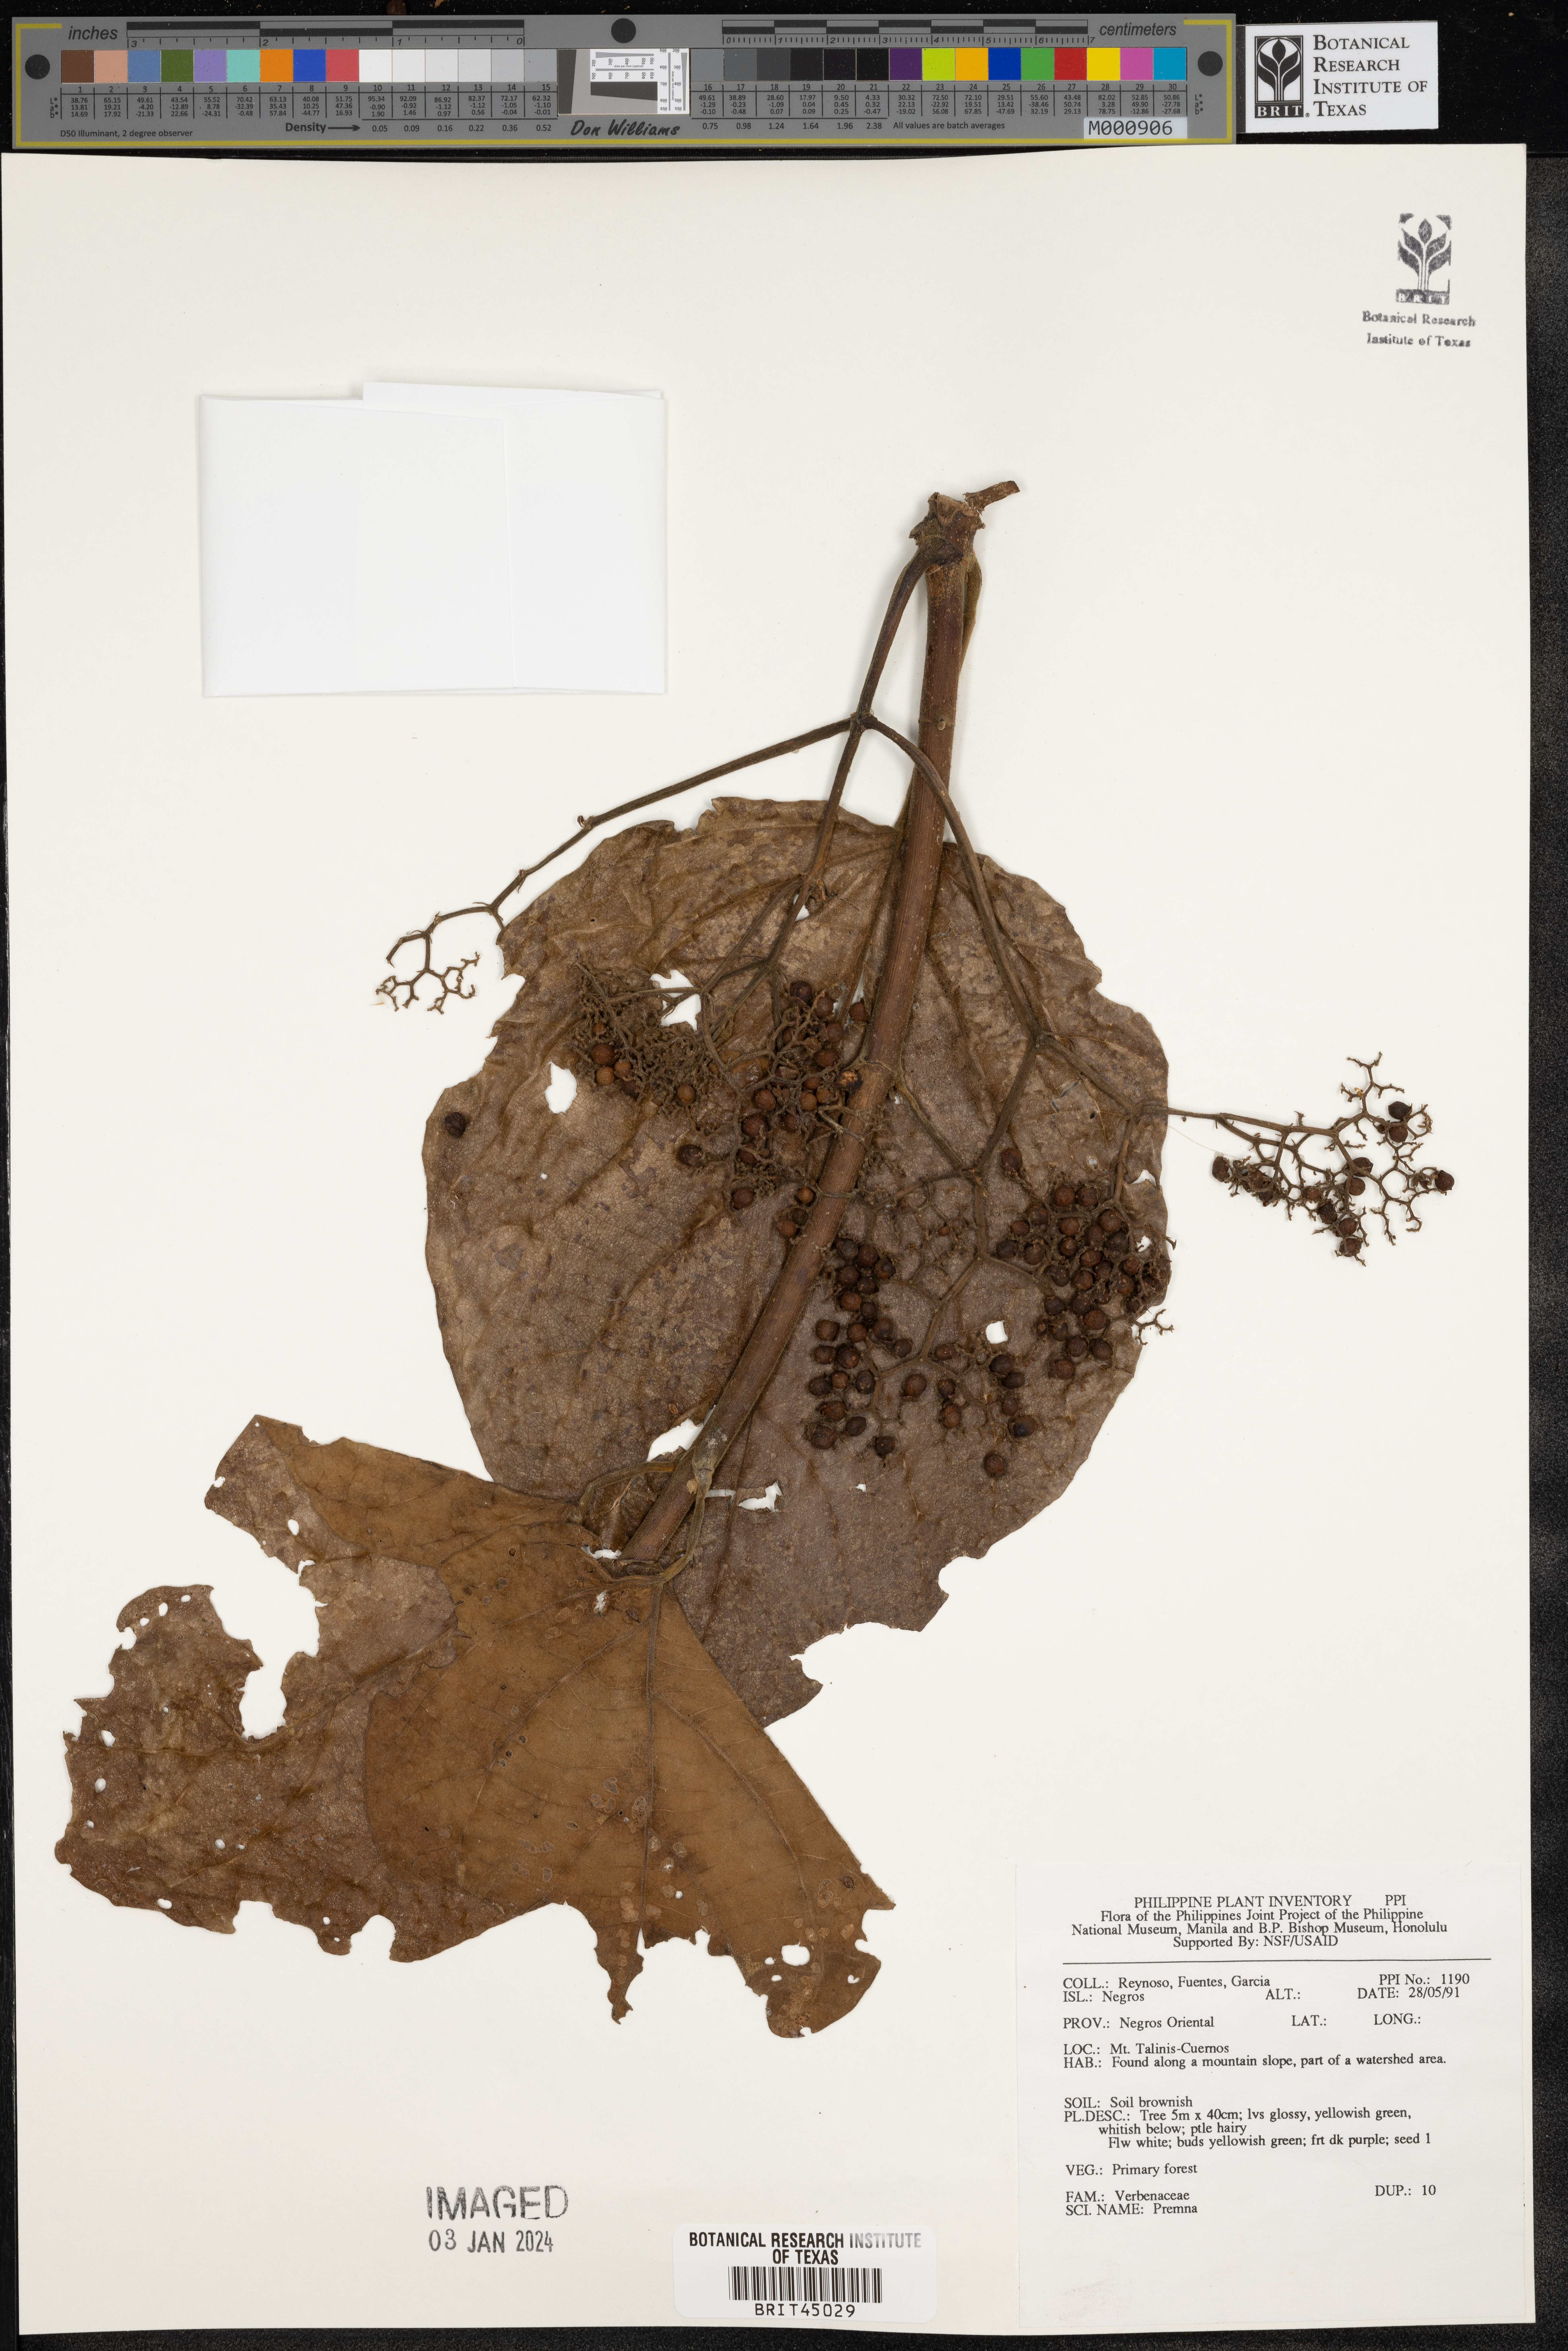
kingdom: Plantae
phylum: Tracheophyta
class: Magnoliopsida
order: Lamiales
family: Lamiaceae
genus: Premna
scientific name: Premna
